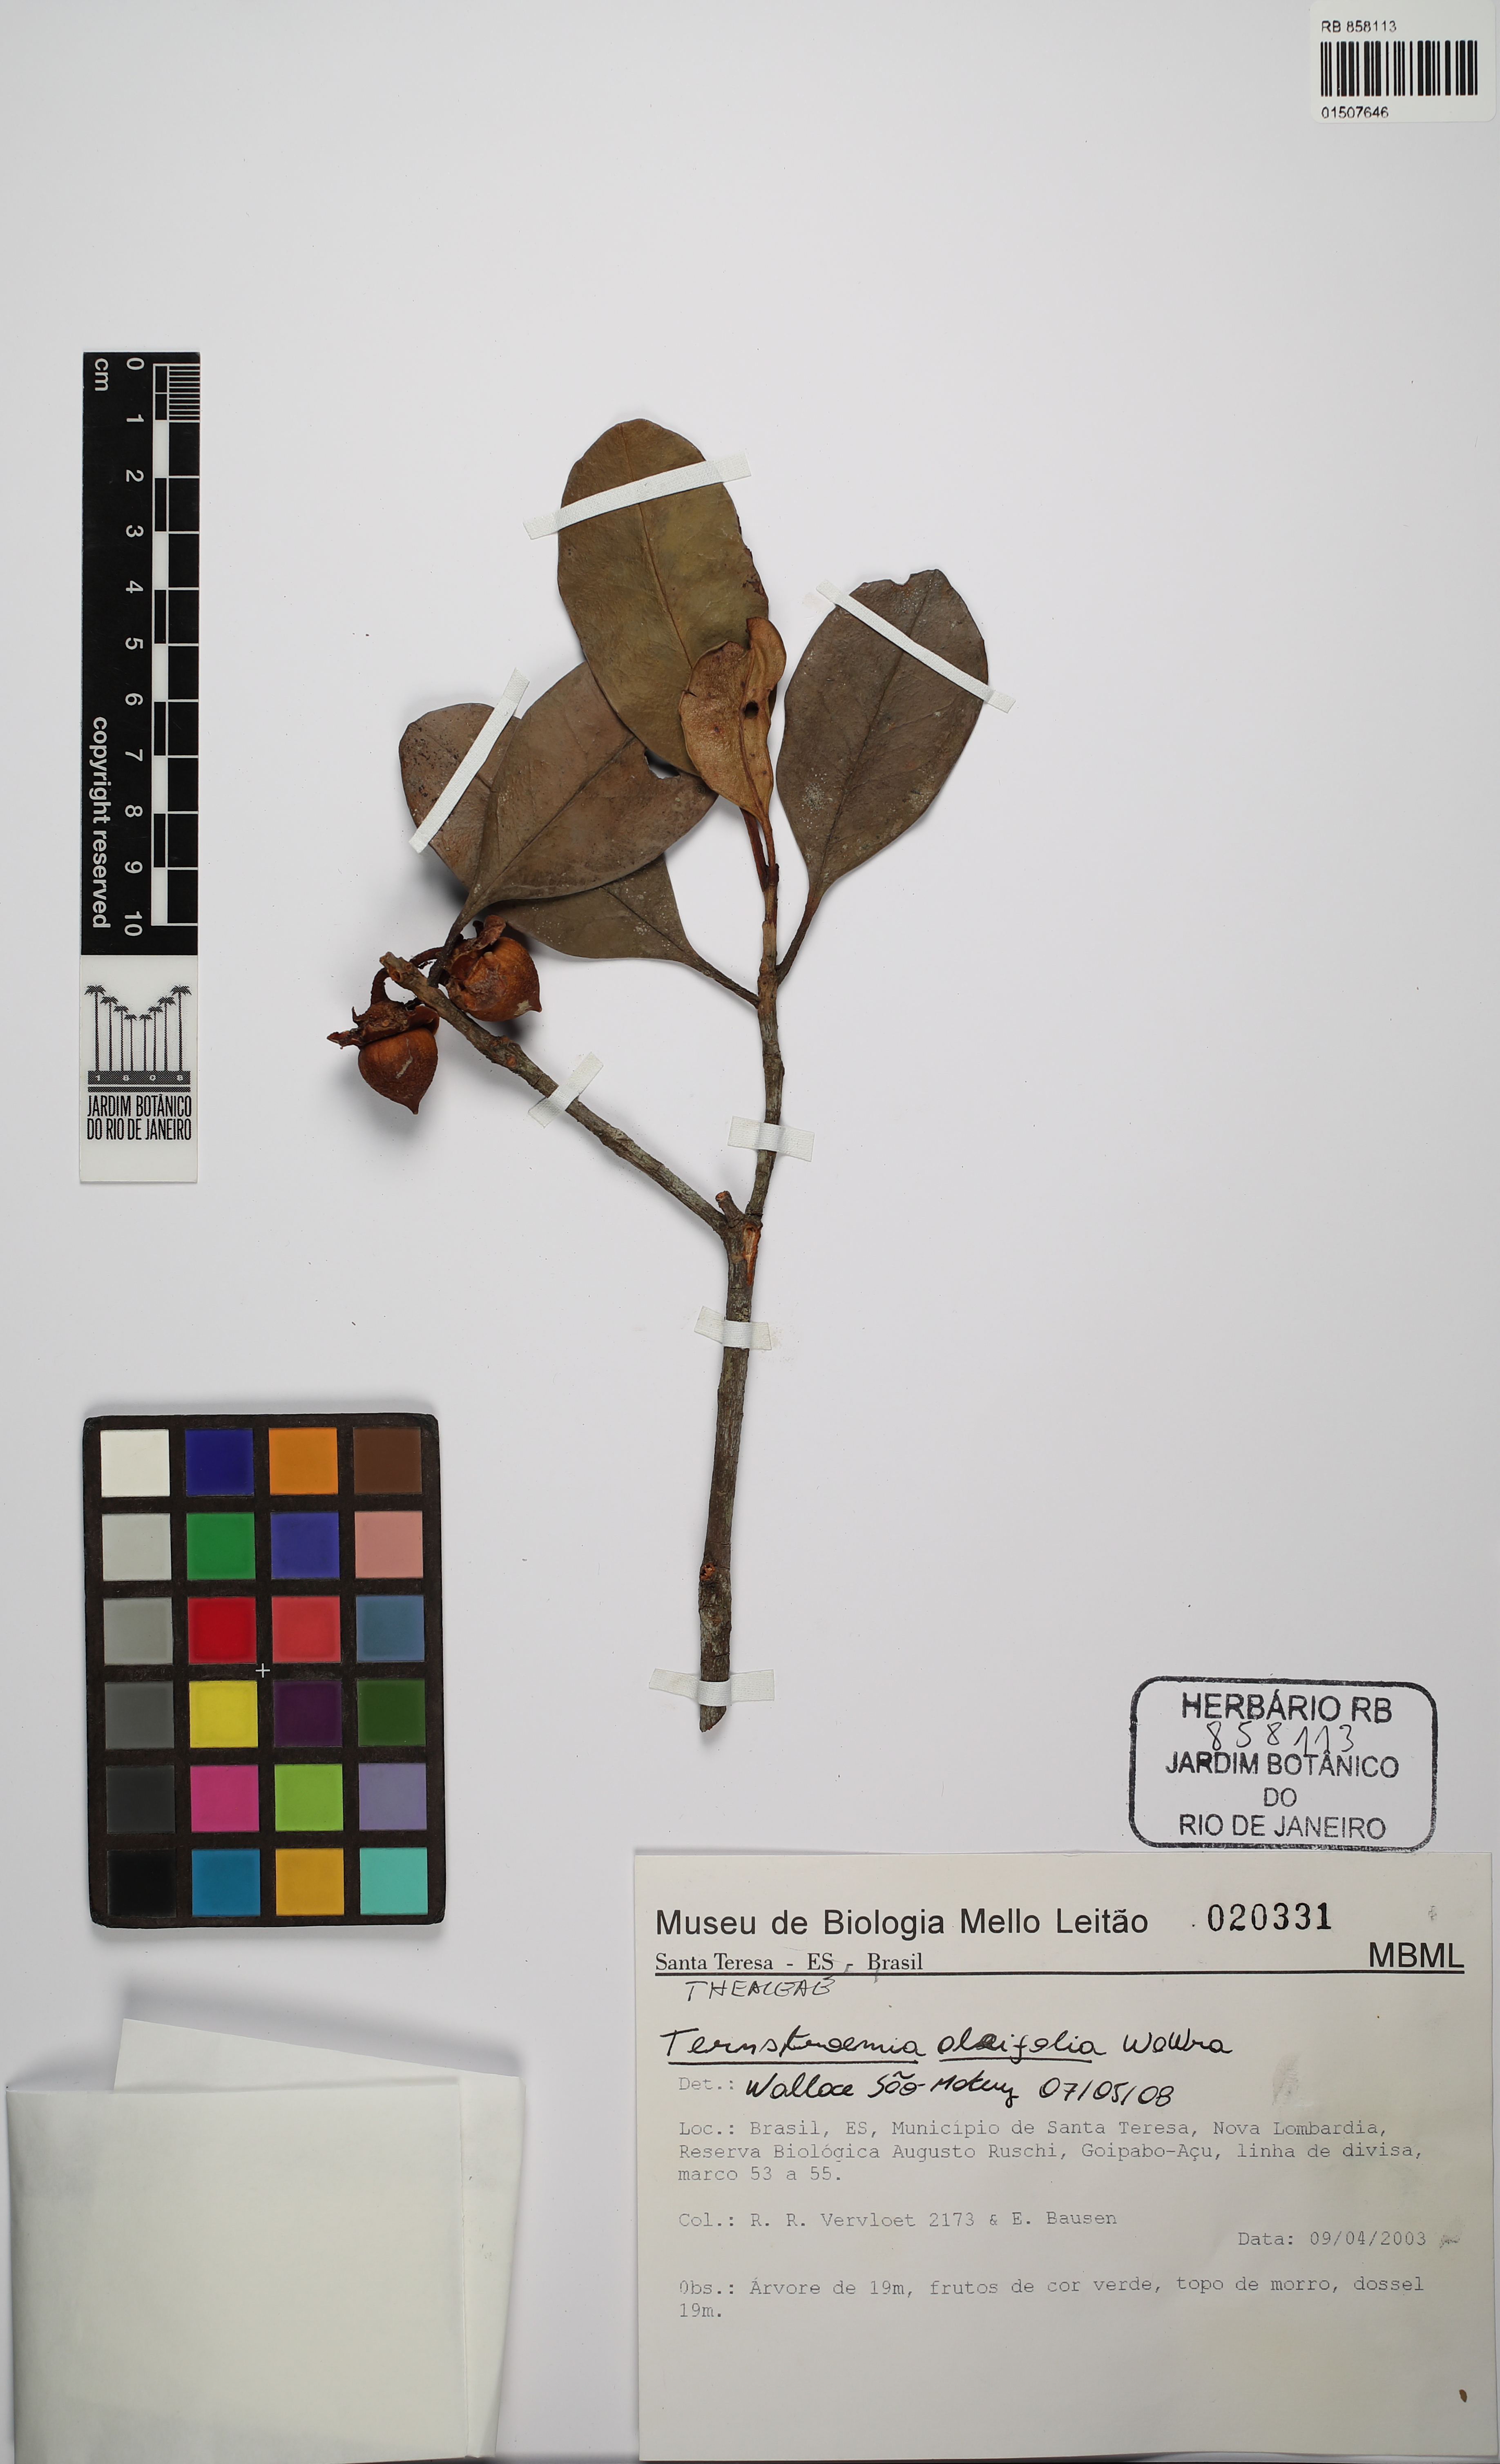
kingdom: Plantae
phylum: Tracheophyta
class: Magnoliopsida
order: Ericales
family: Pentaphylacaceae
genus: Ternstroemia
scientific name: Ternstroemia oleifolia
